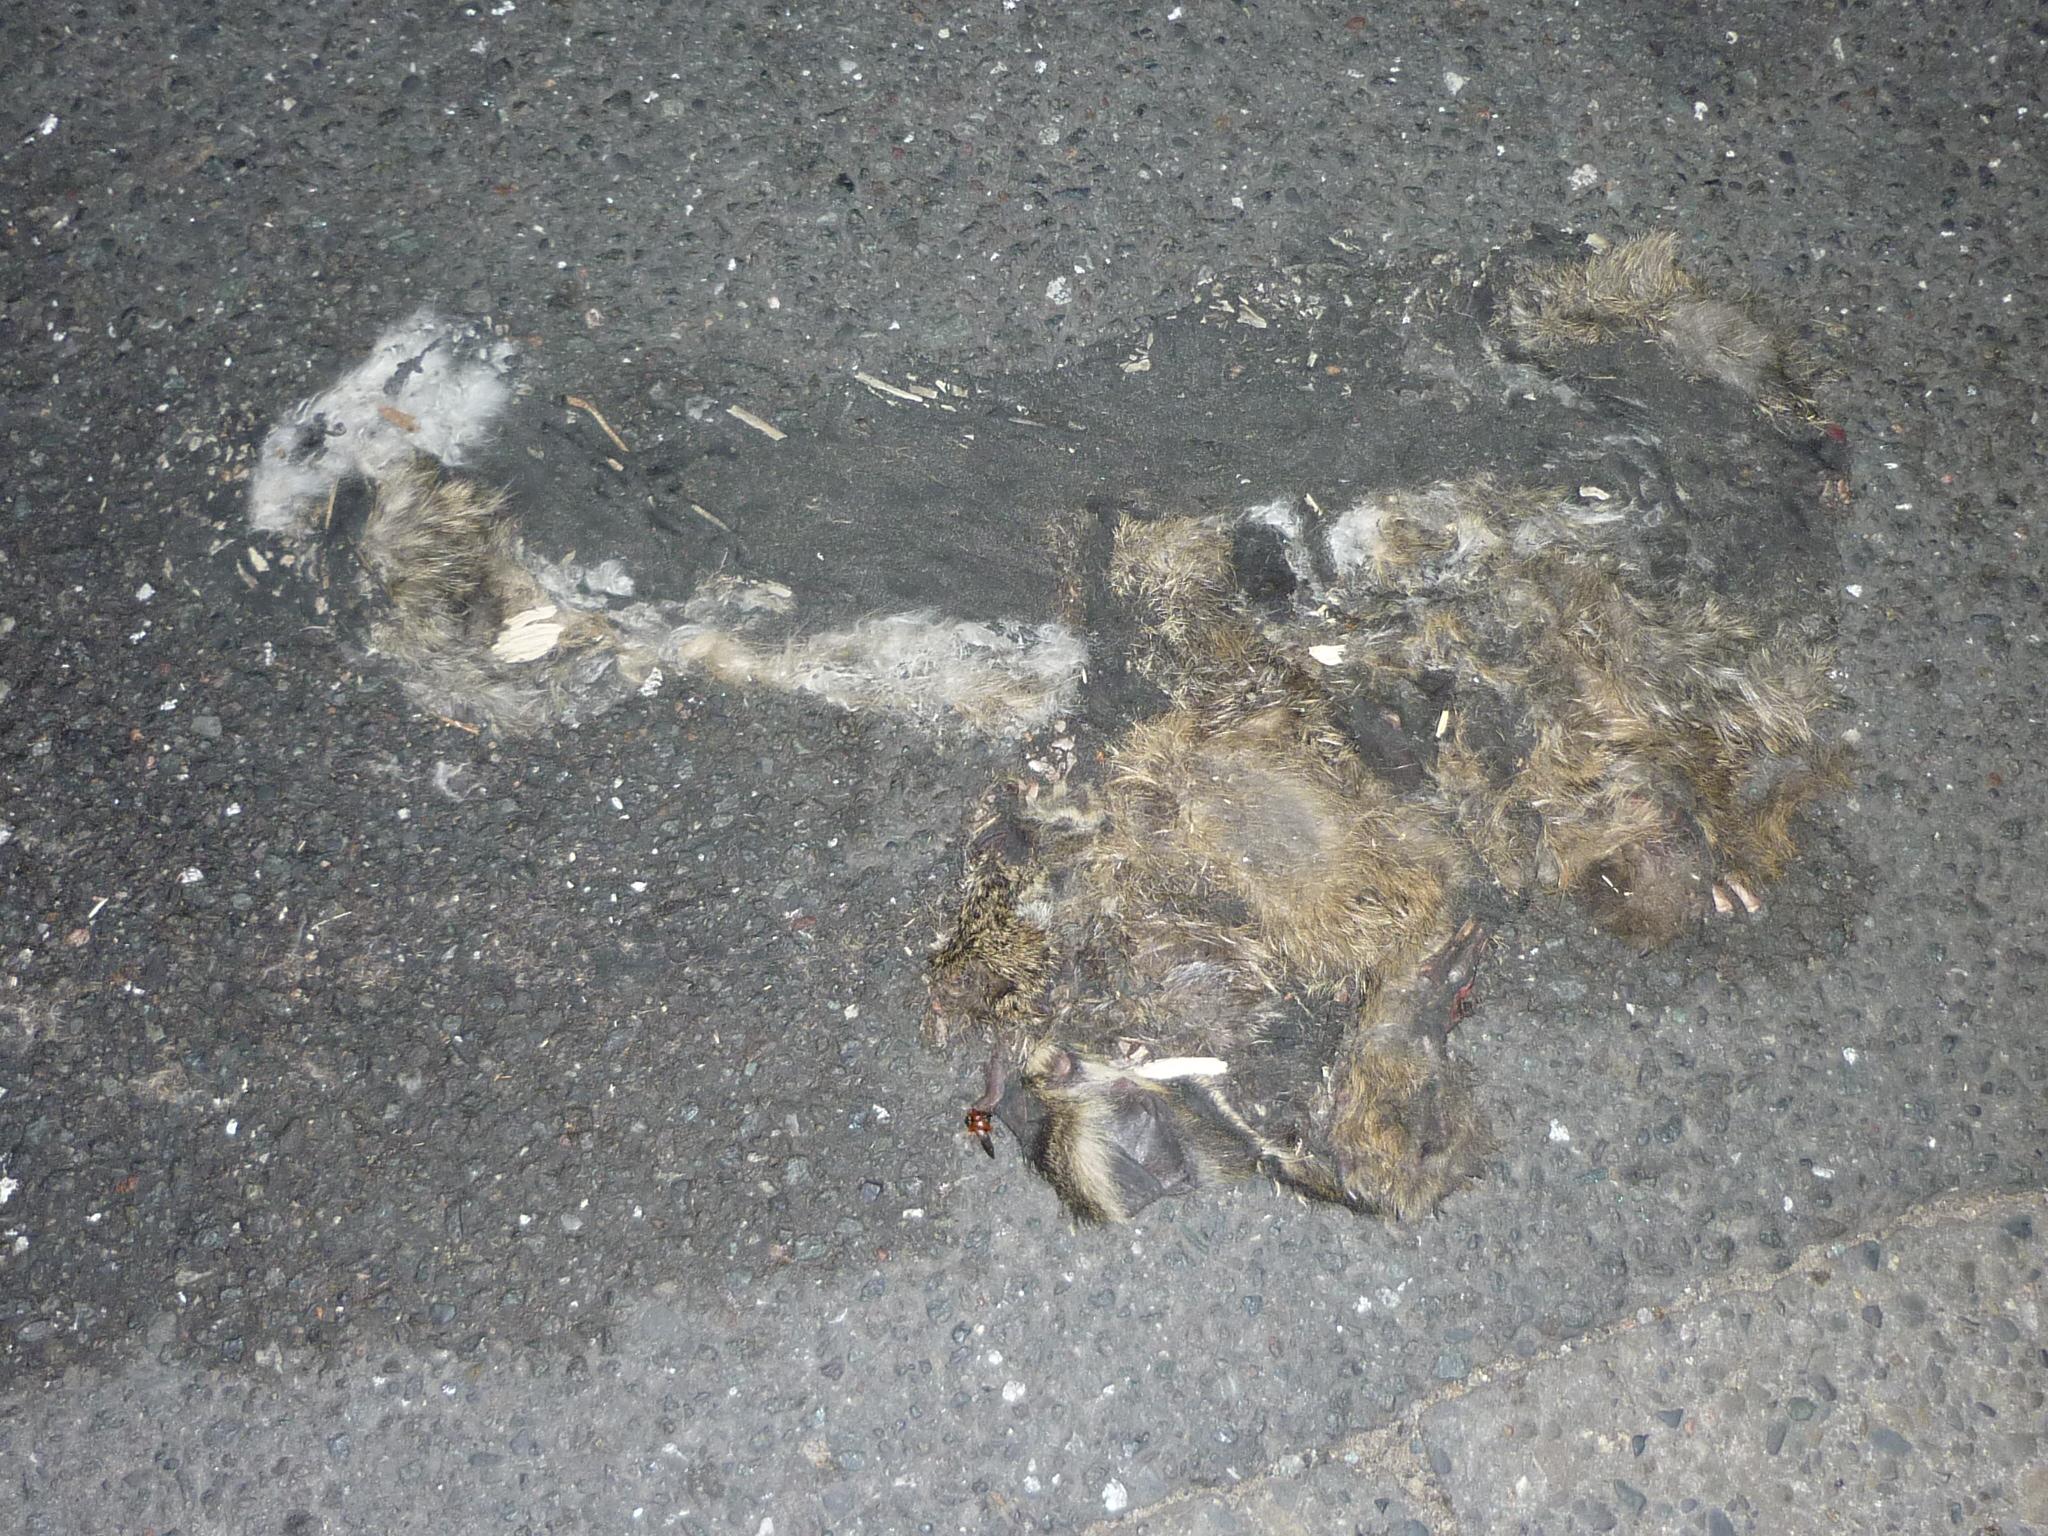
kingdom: Animalia
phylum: Chordata
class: Mammalia
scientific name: Mammalia
